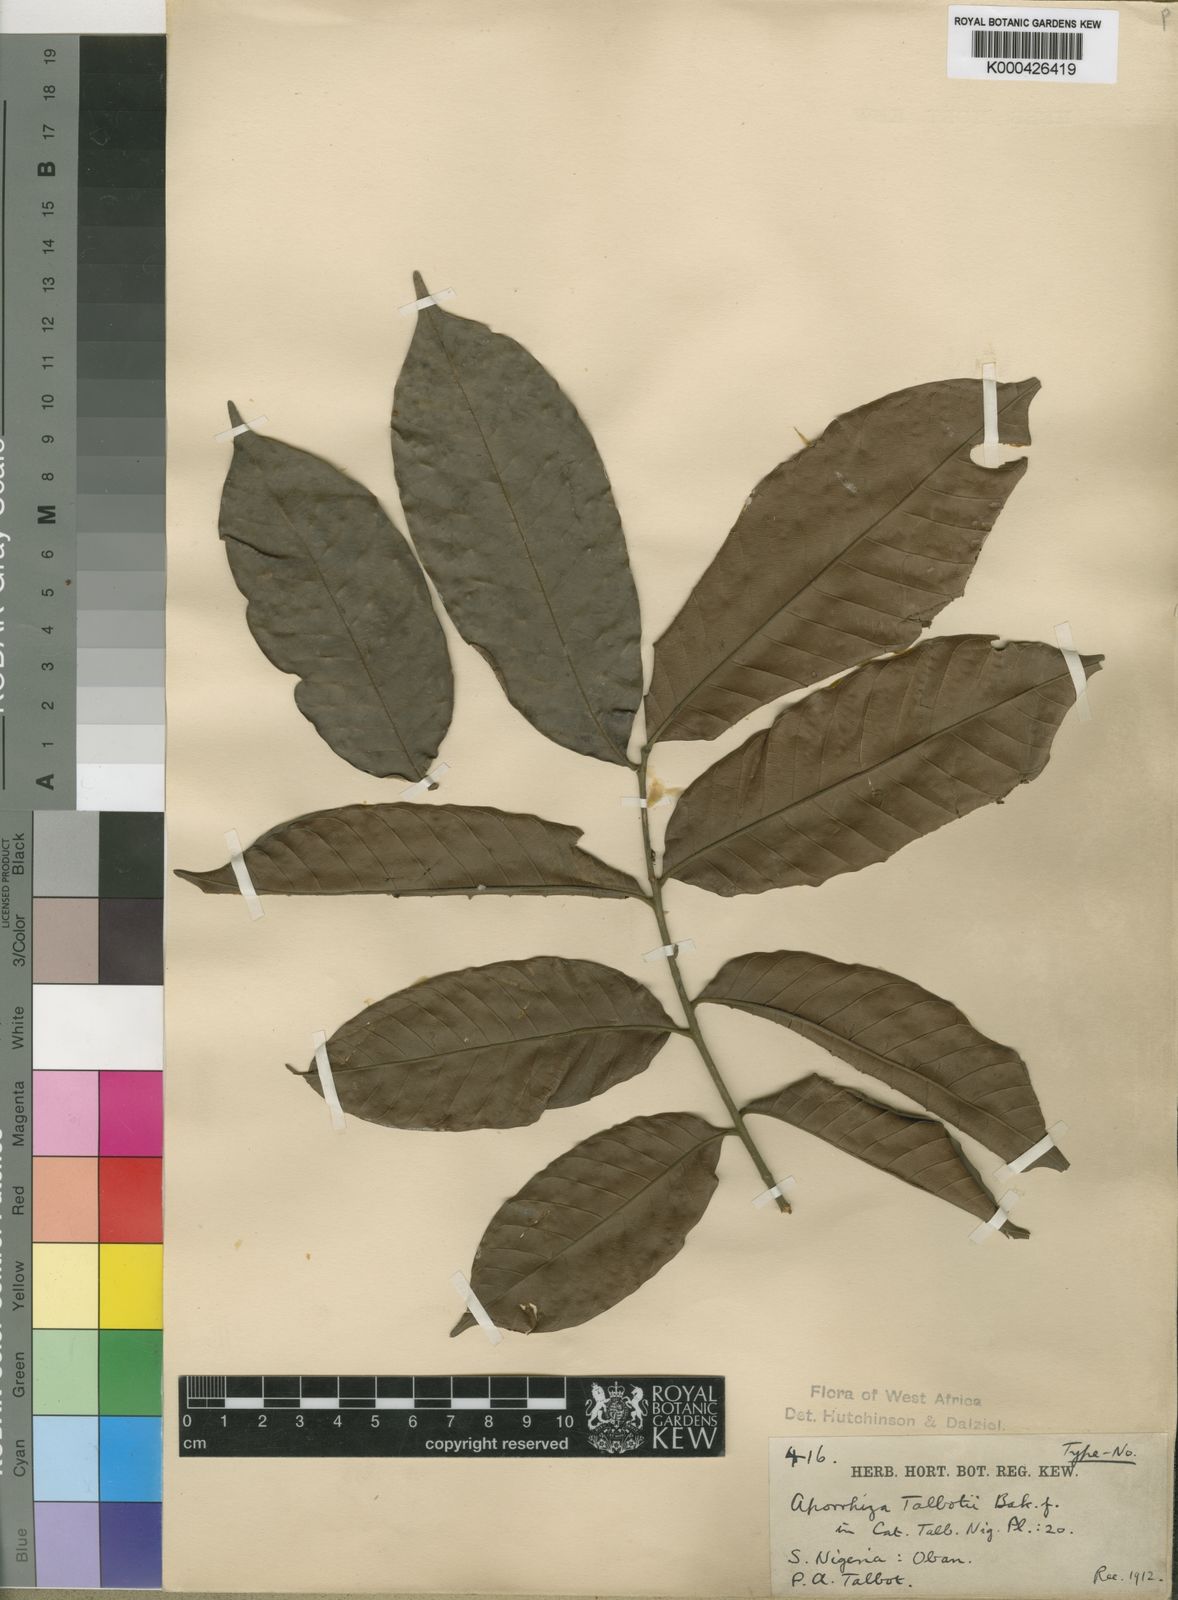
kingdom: Plantae
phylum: Tracheophyta
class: Magnoliopsida
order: Sapindales
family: Sapindaceae
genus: Aporrhiza
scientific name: Aporrhiza talbotii
